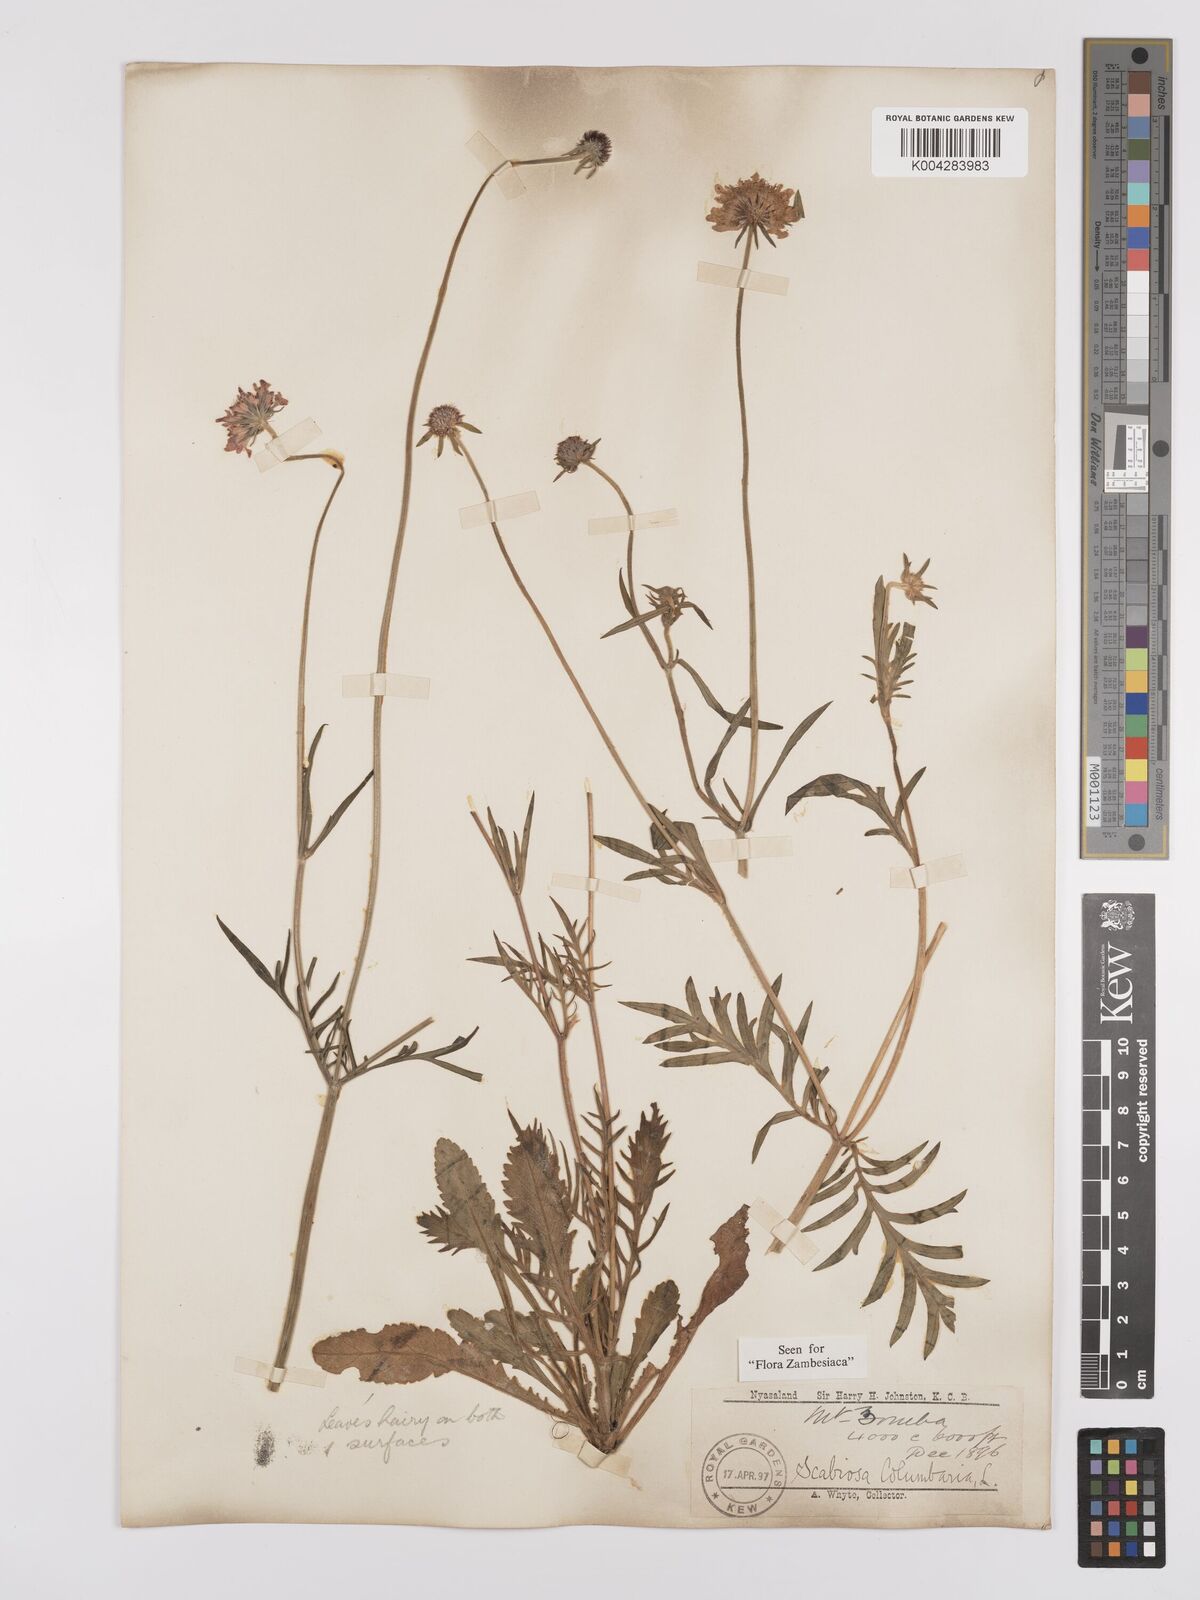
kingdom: Plantae
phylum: Tracheophyta
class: Magnoliopsida
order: Dipsacales
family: Caprifoliaceae
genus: Scabiosa
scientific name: Scabiosa columbaria
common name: Small scabious
